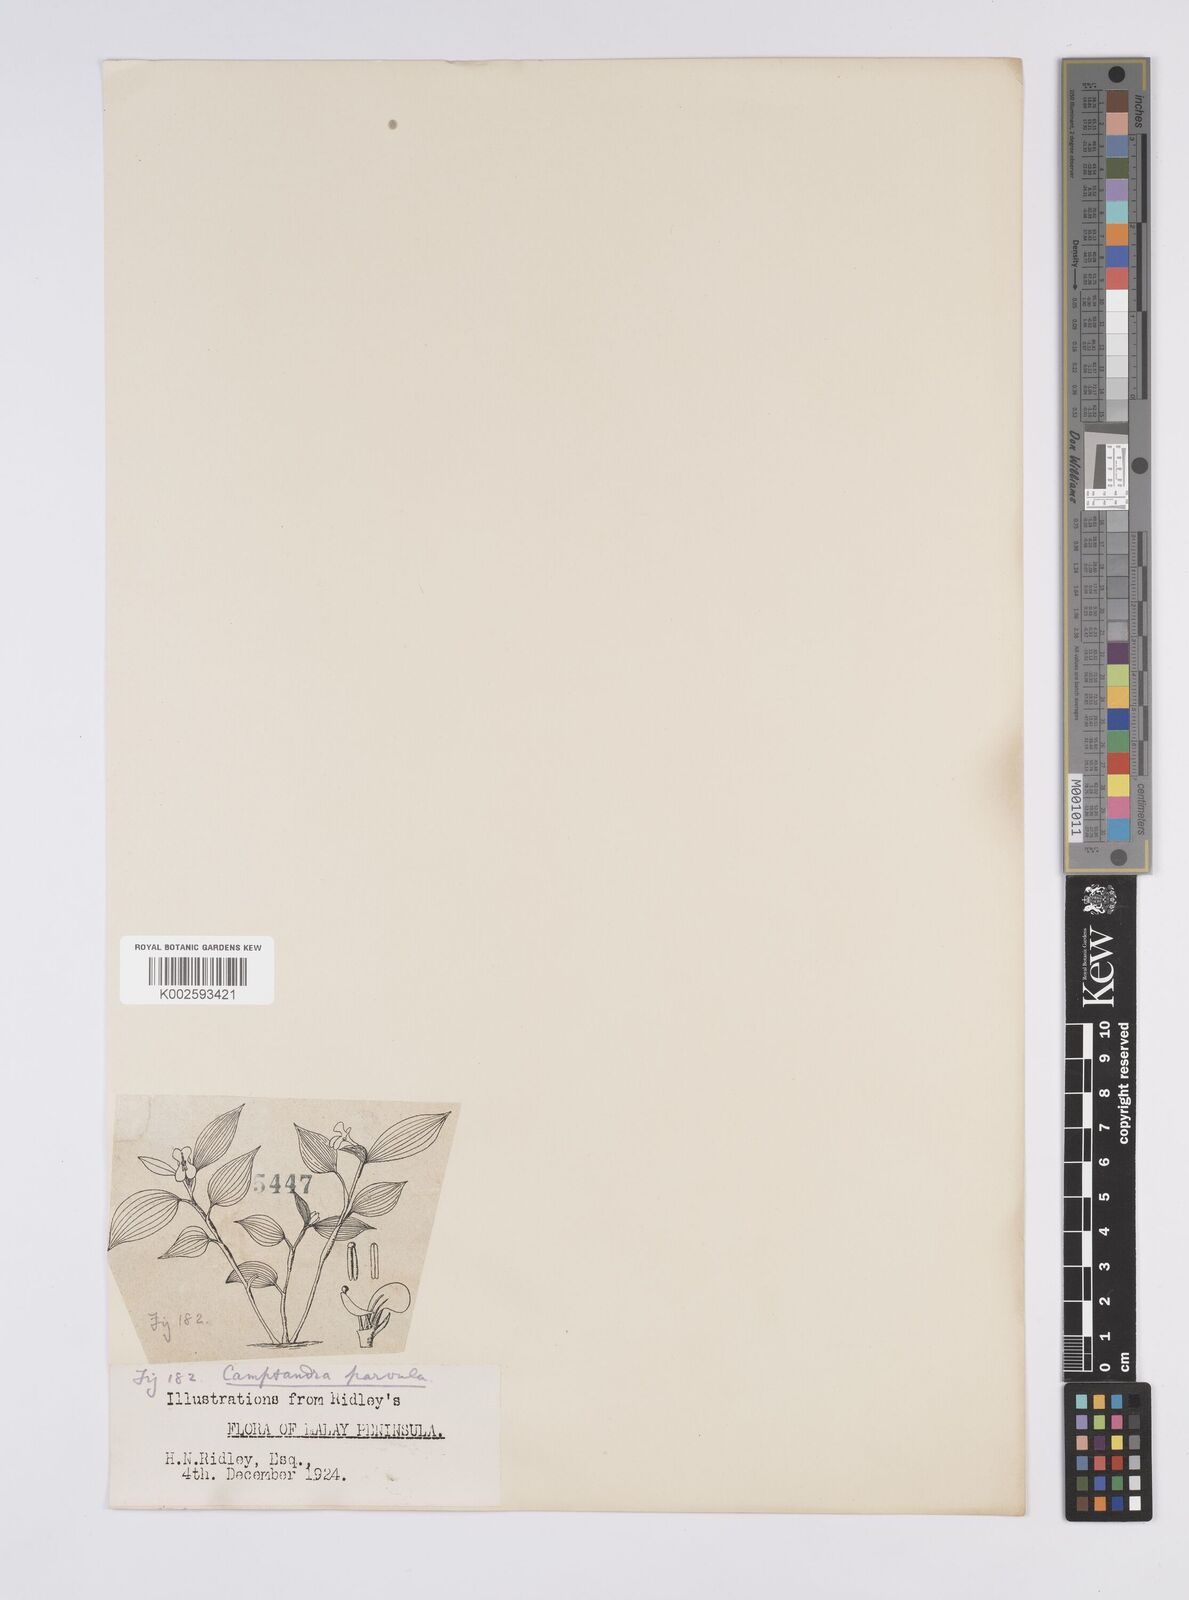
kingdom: Plantae
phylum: Tracheophyta
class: Liliopsida
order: Zingiberales
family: Zingiberaceae
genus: Camptandra
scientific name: Camptandra parvula
